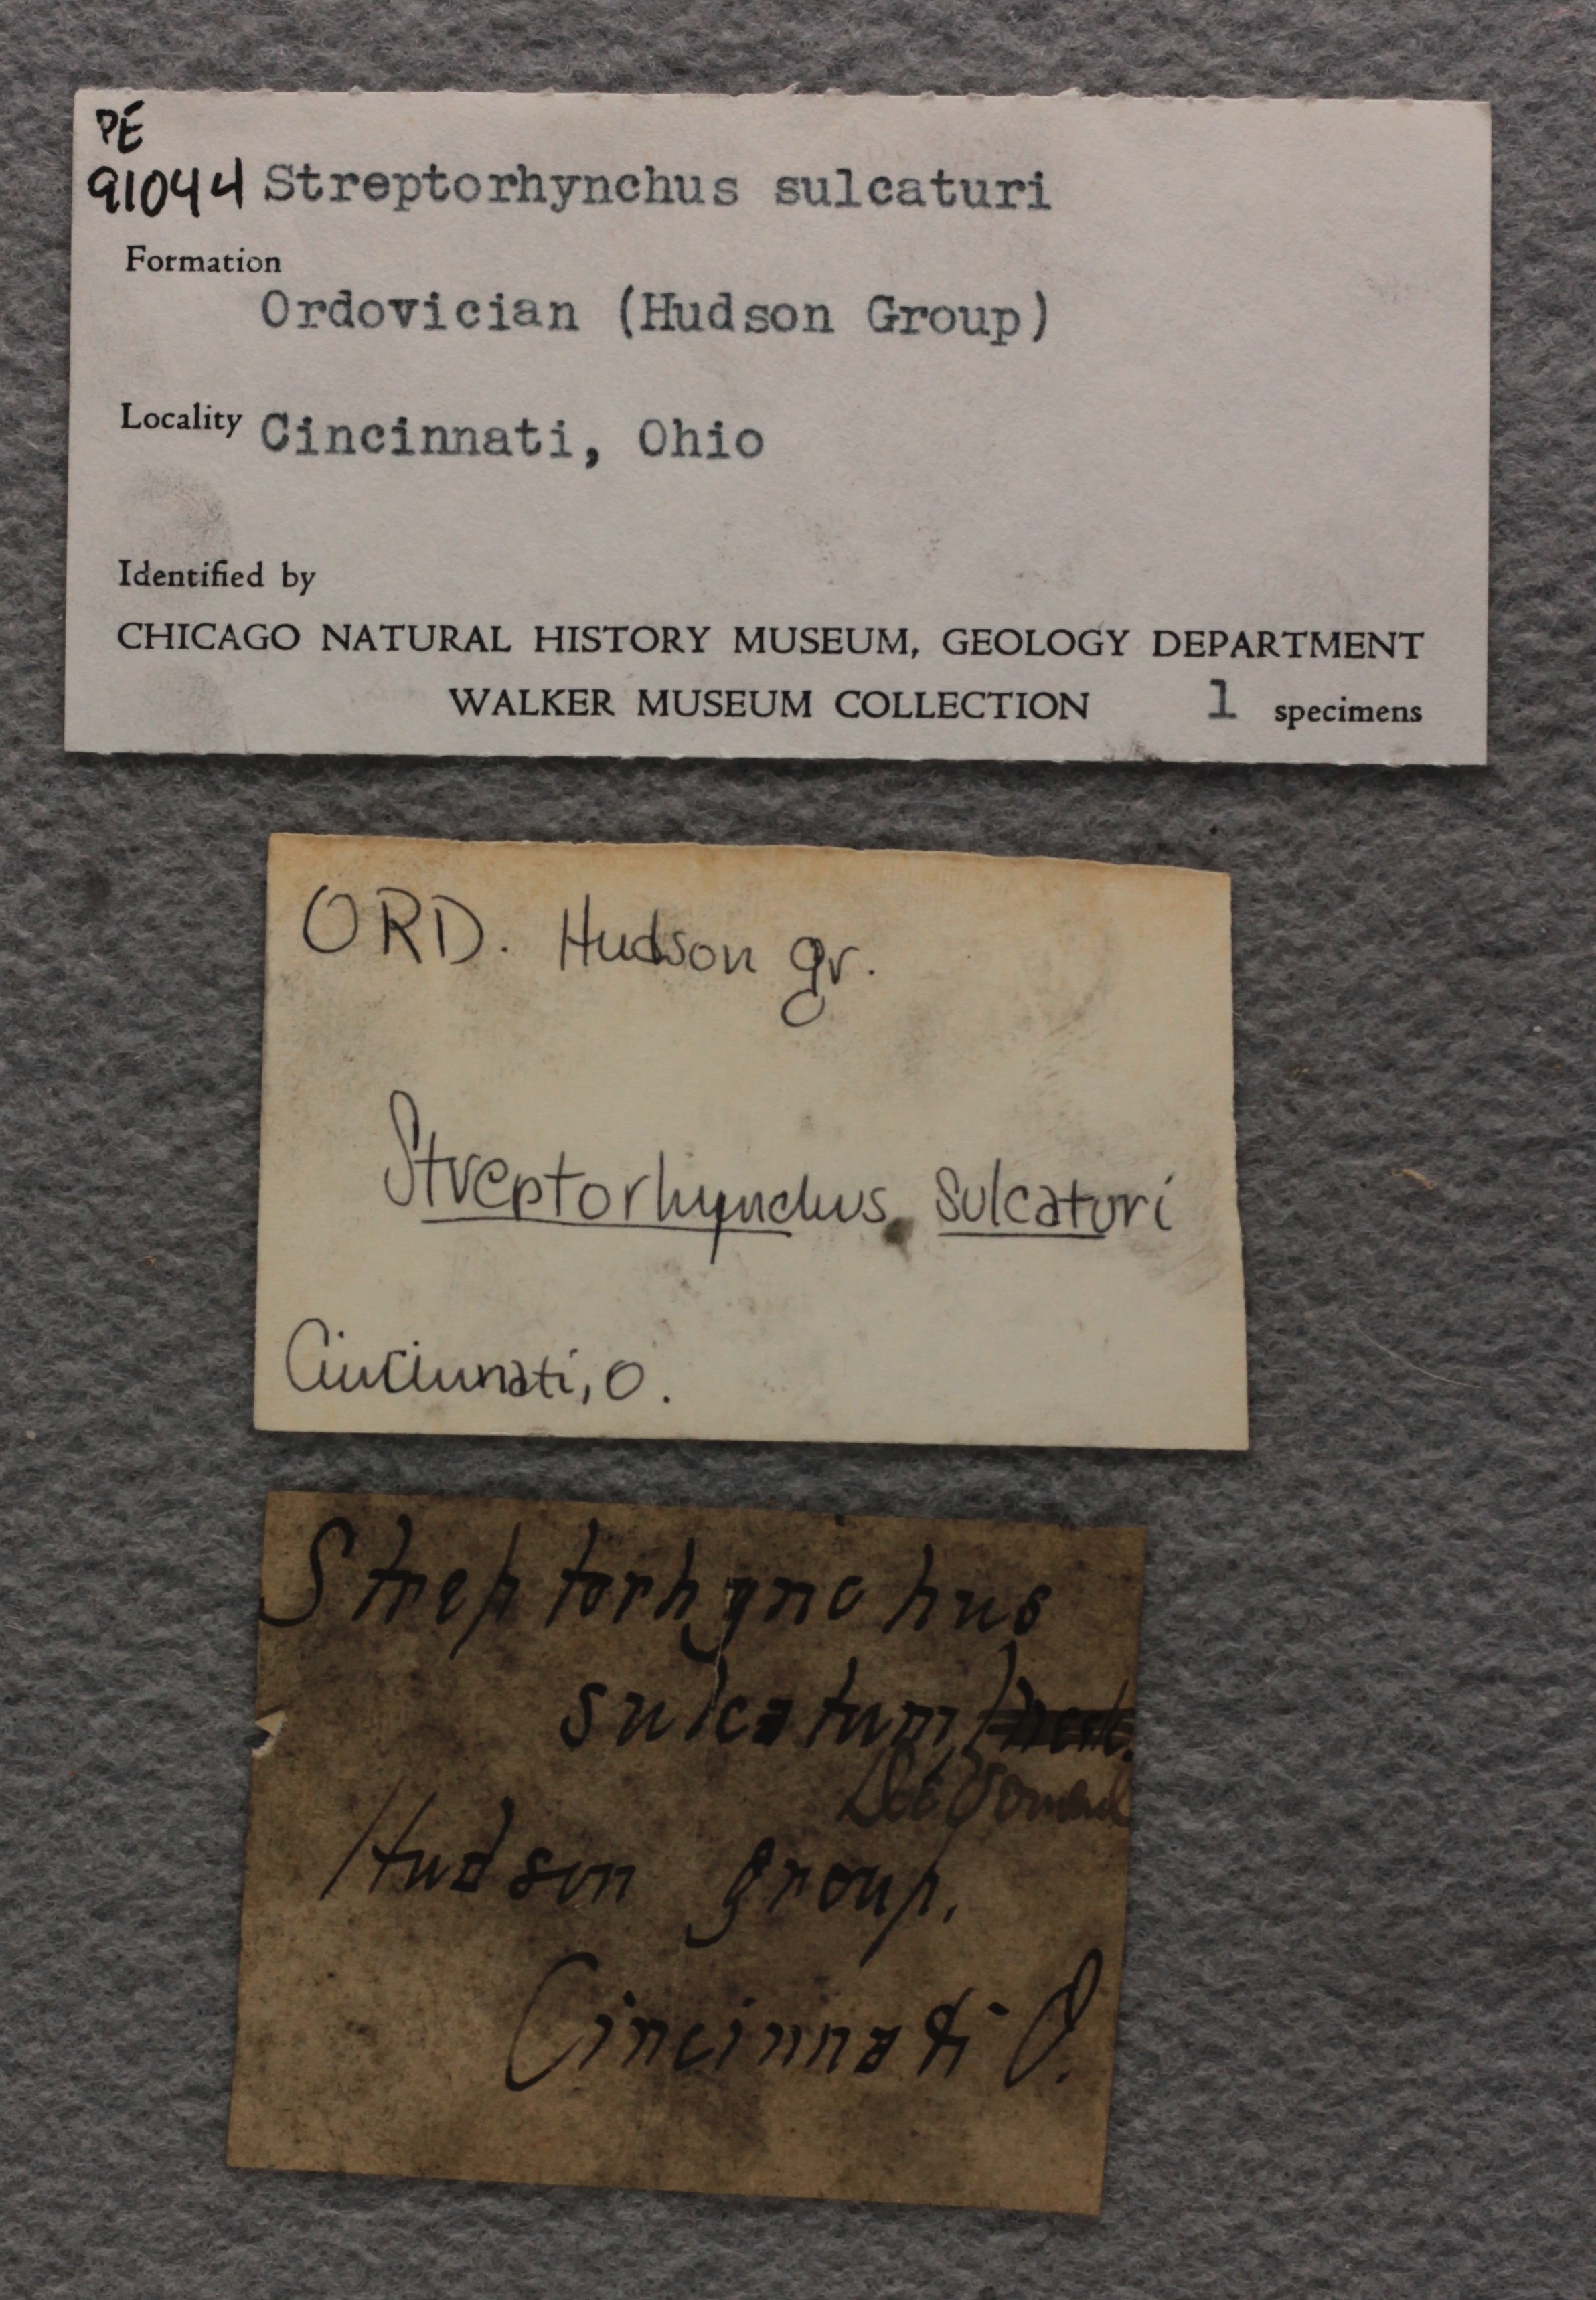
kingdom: Animalia
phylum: Brachiopoda
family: Streptorhynchidae
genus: Streptorhynchus
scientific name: Streptorhynchus
